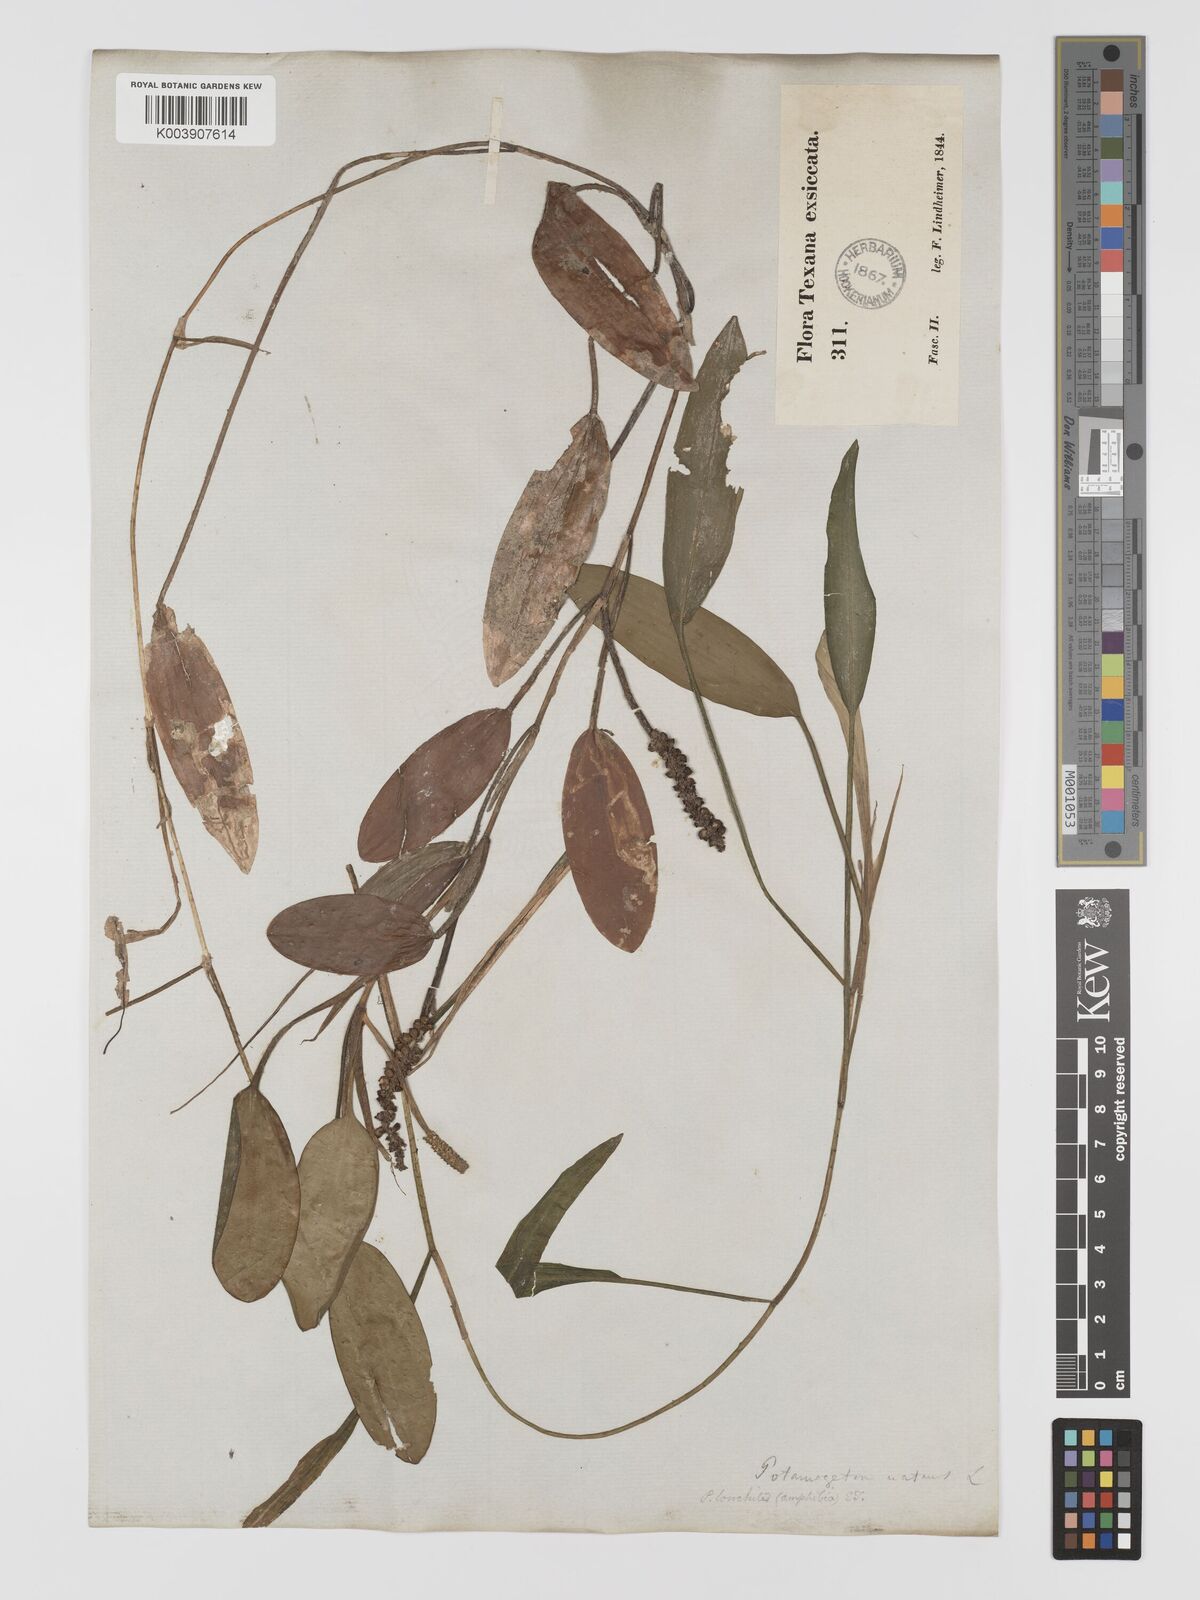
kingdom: Plantae
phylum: Tracheophyta
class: Liliopsida
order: Alismatales
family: Potamogetonaceae
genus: Potamogeton
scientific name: Potamogeton nodosus
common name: Loddon pondweed
